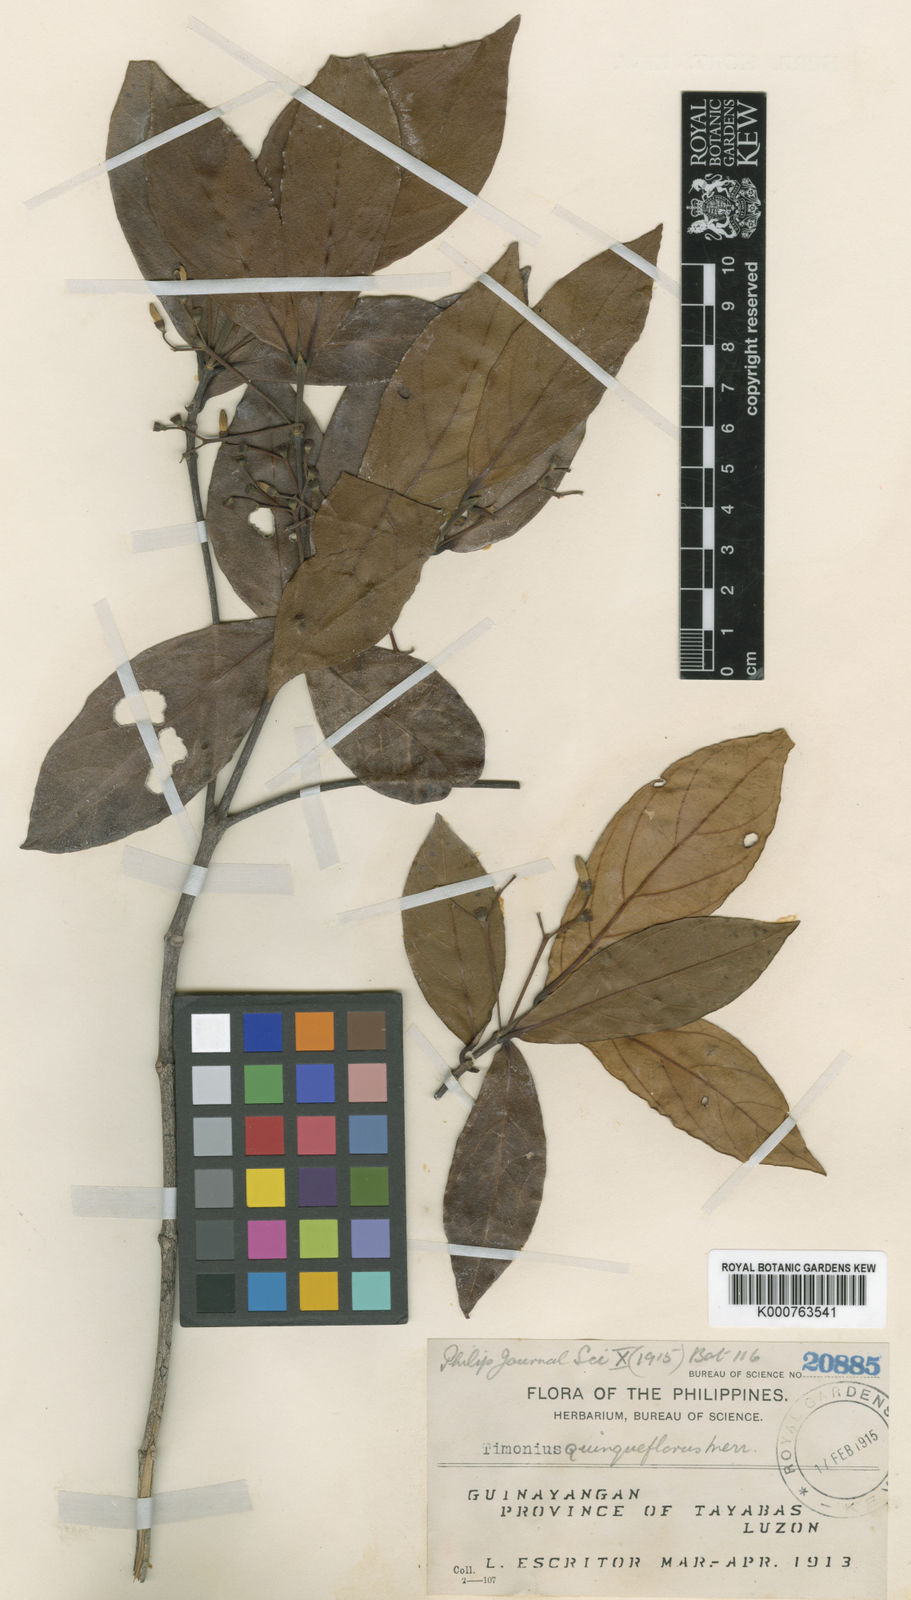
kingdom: Plantae
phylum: Tracheophyta
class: Magnoliopsida
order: Gentianales
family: Rubiaceae
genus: Timonius
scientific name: Timonius quinqueflorus
